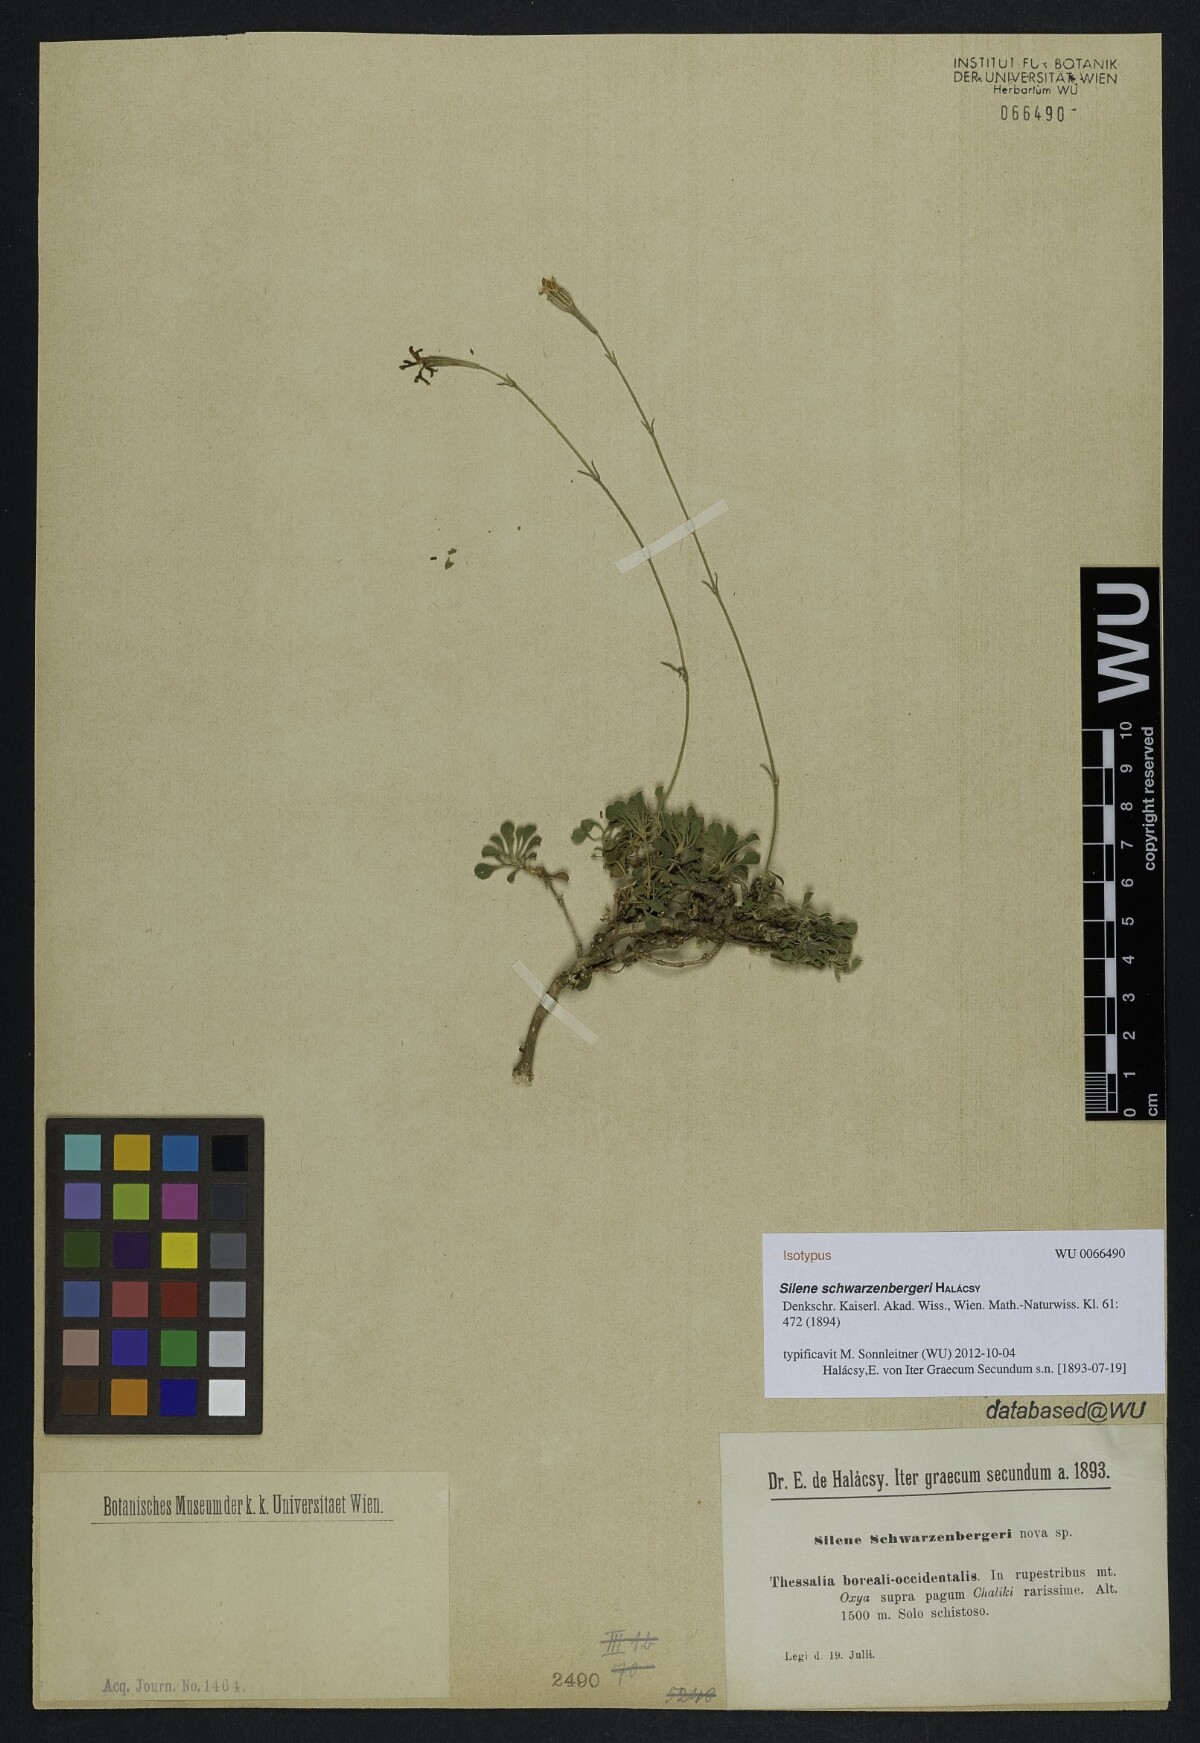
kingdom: Plantae
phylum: Tracheophyta
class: Magnoliopsida
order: Caryophyllales
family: Caryophyllaceae
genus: Silene
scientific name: Silene schwarzenbergeri
